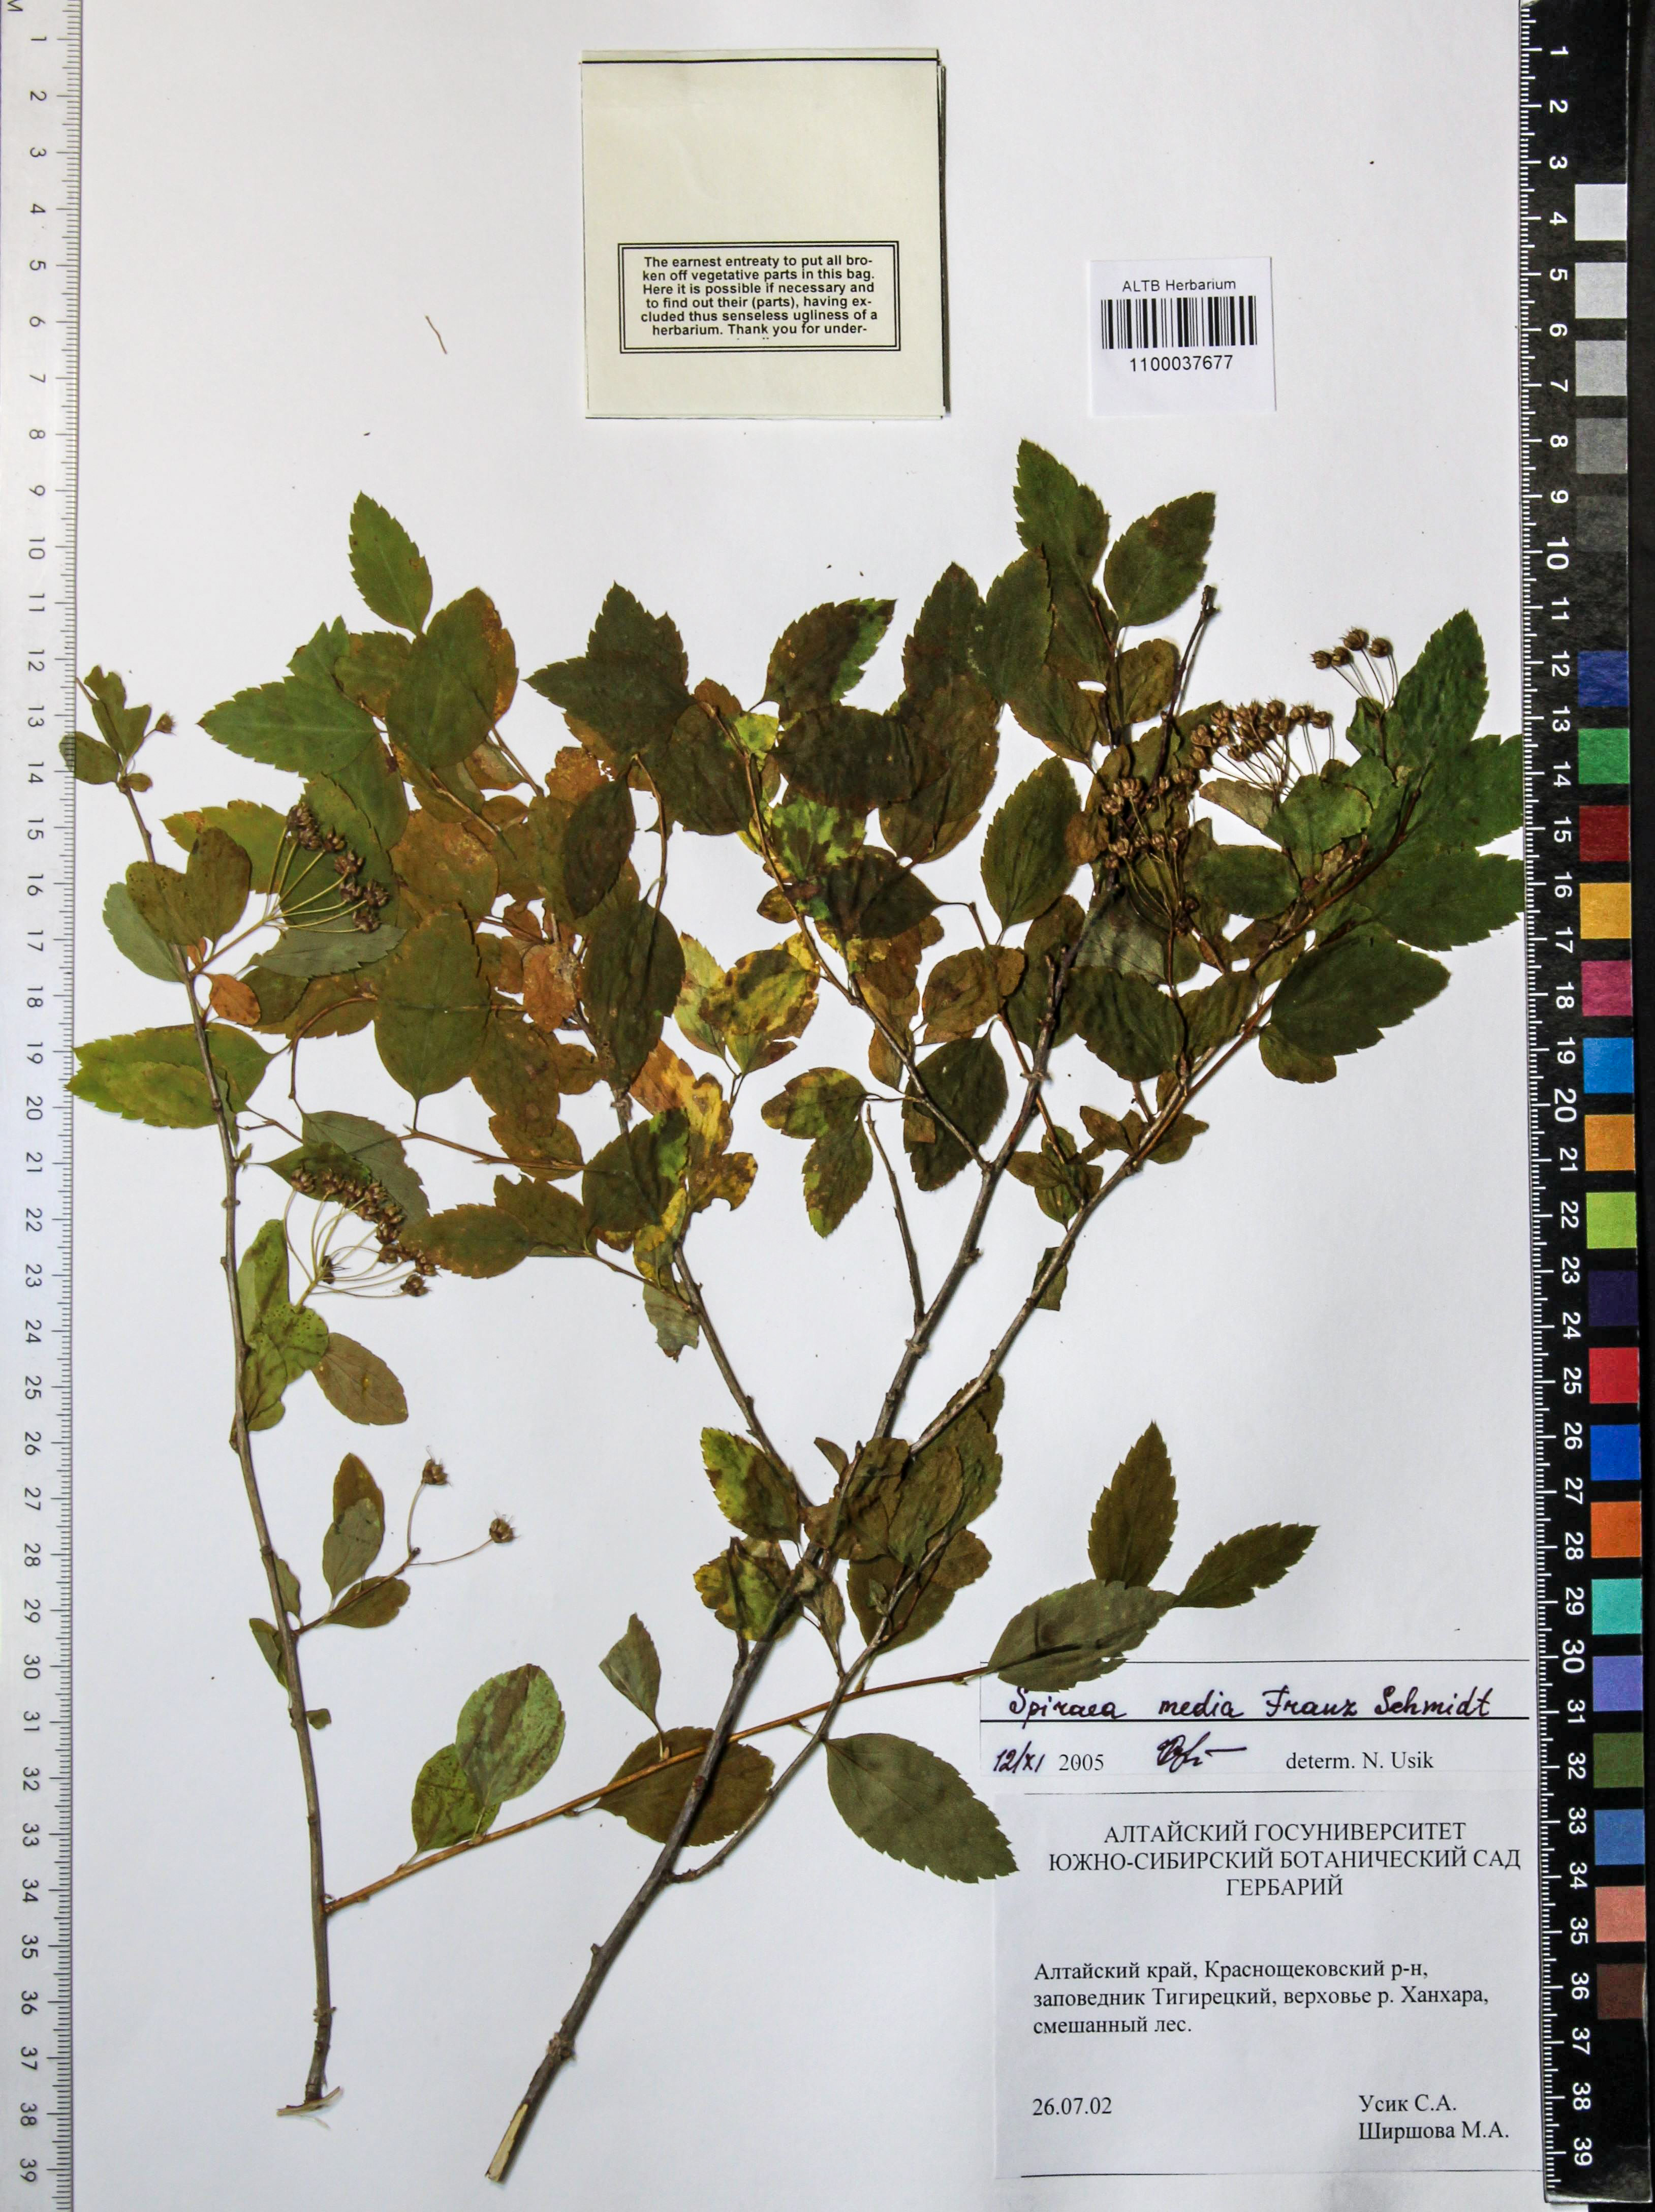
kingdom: Plantae
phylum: Tracheophyta
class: Magnoliopsida
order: Rosales
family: Rosaceae
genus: Spiraea
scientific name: Spiraea media
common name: Russian spiraea
